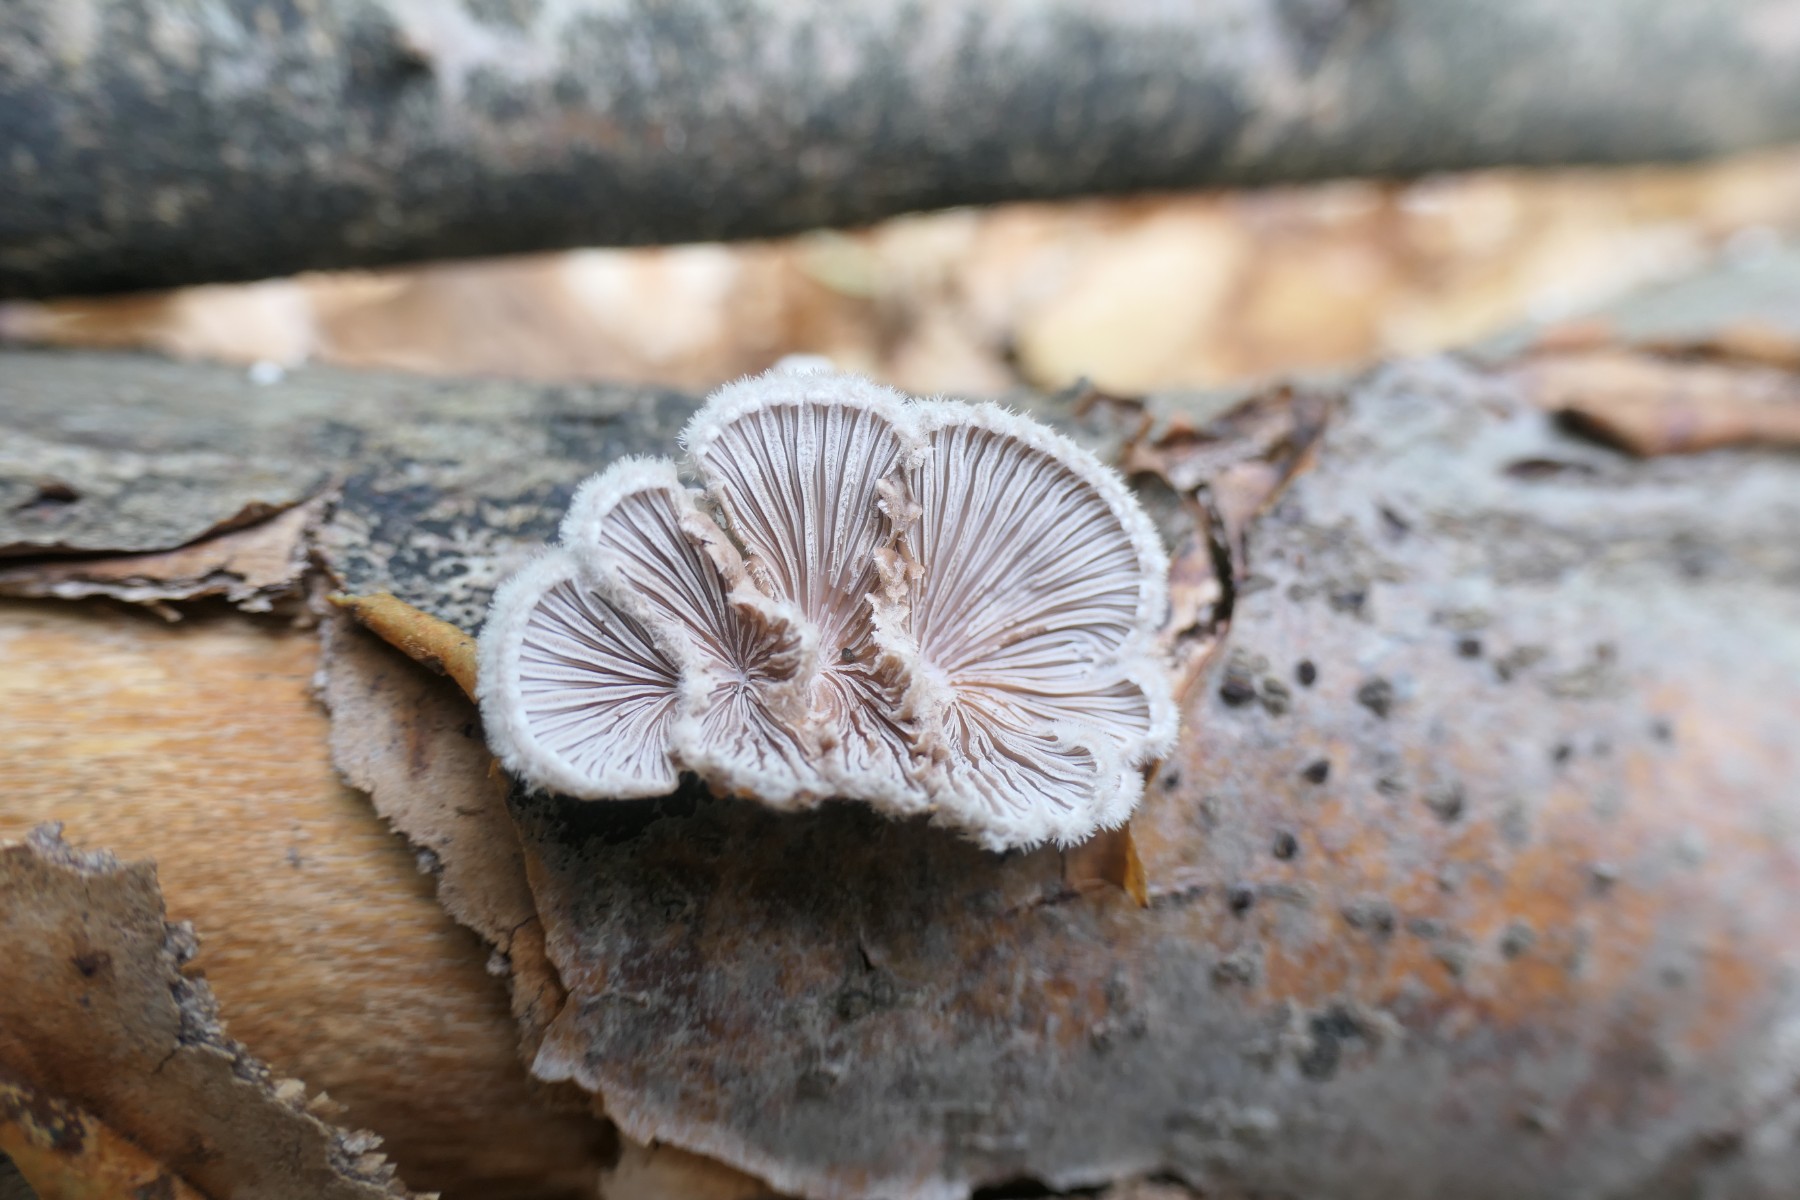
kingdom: Fungi
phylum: Basidiomycota
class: Agaricomycetes
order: Agaricales
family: Schizophyllaceae
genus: Schizophyllum
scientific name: Schizophyllum commune
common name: kløvblad
